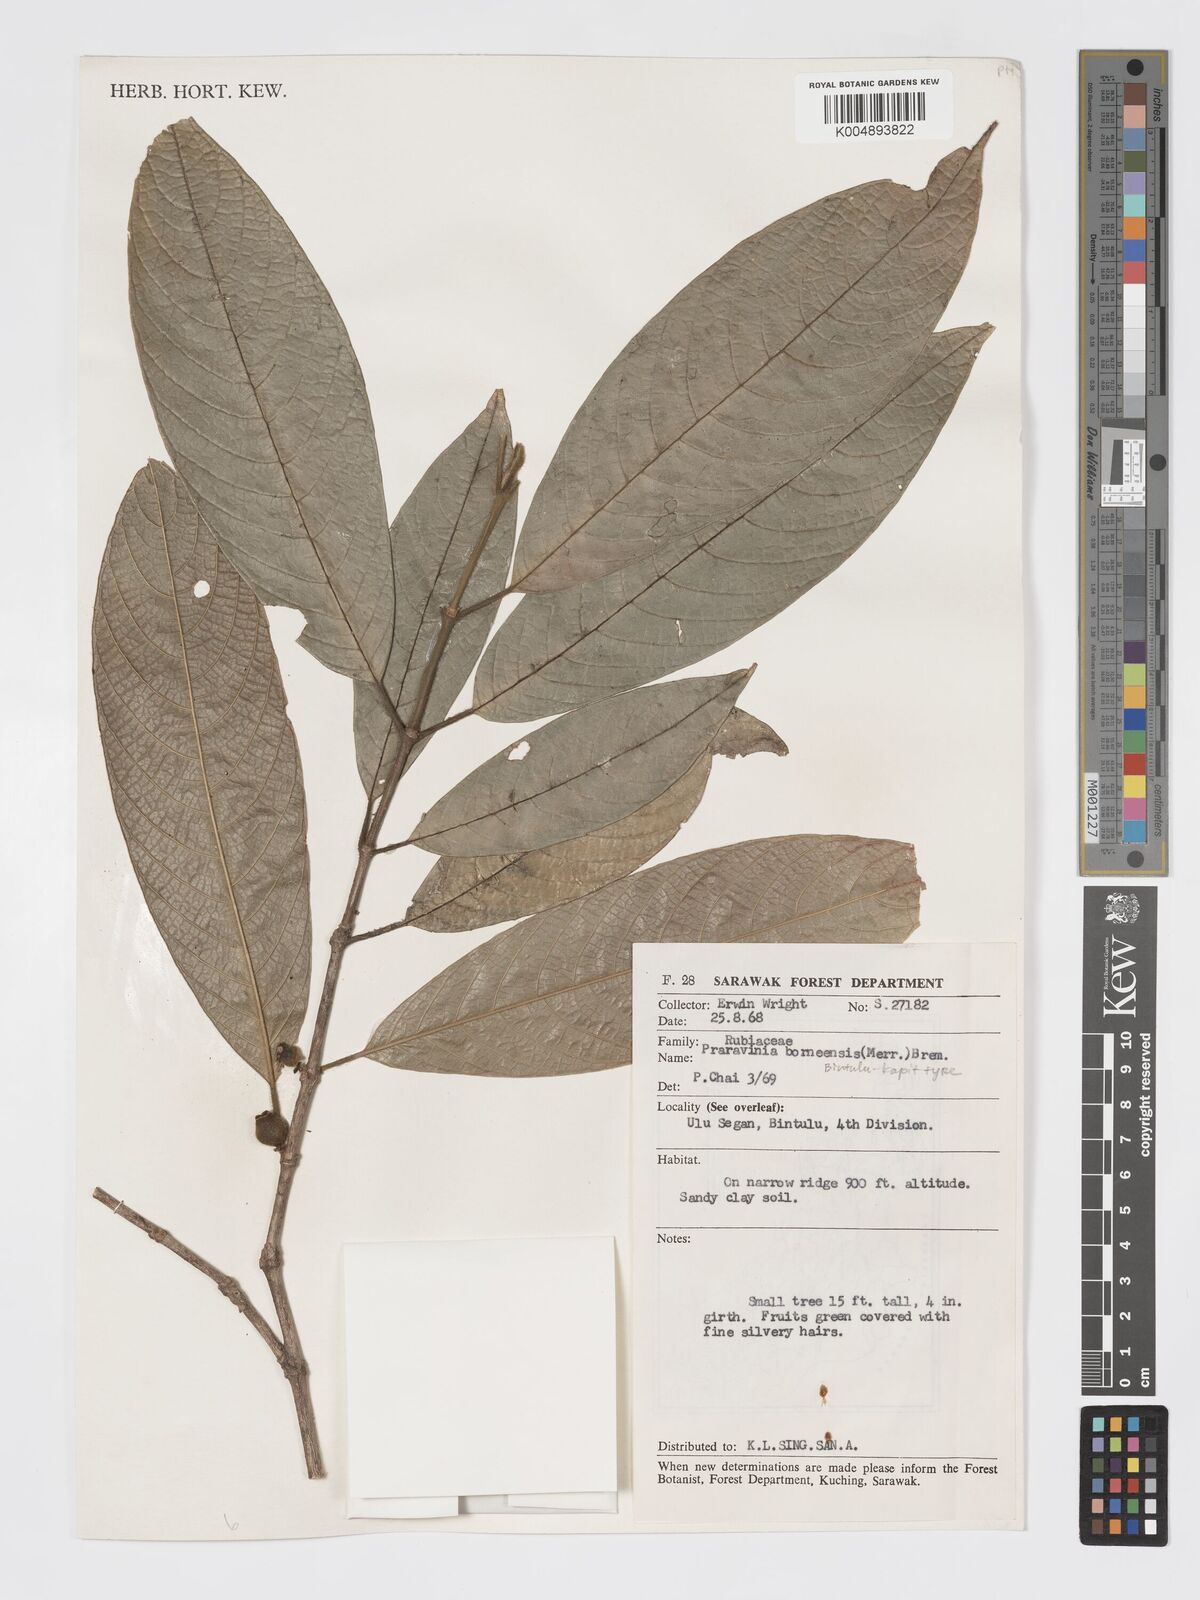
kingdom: Plantae
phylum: Tracheophyta
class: Magnoliopsida
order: Gentianales
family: Rubiaceae
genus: Praravinia
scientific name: Praravinia borneensis
